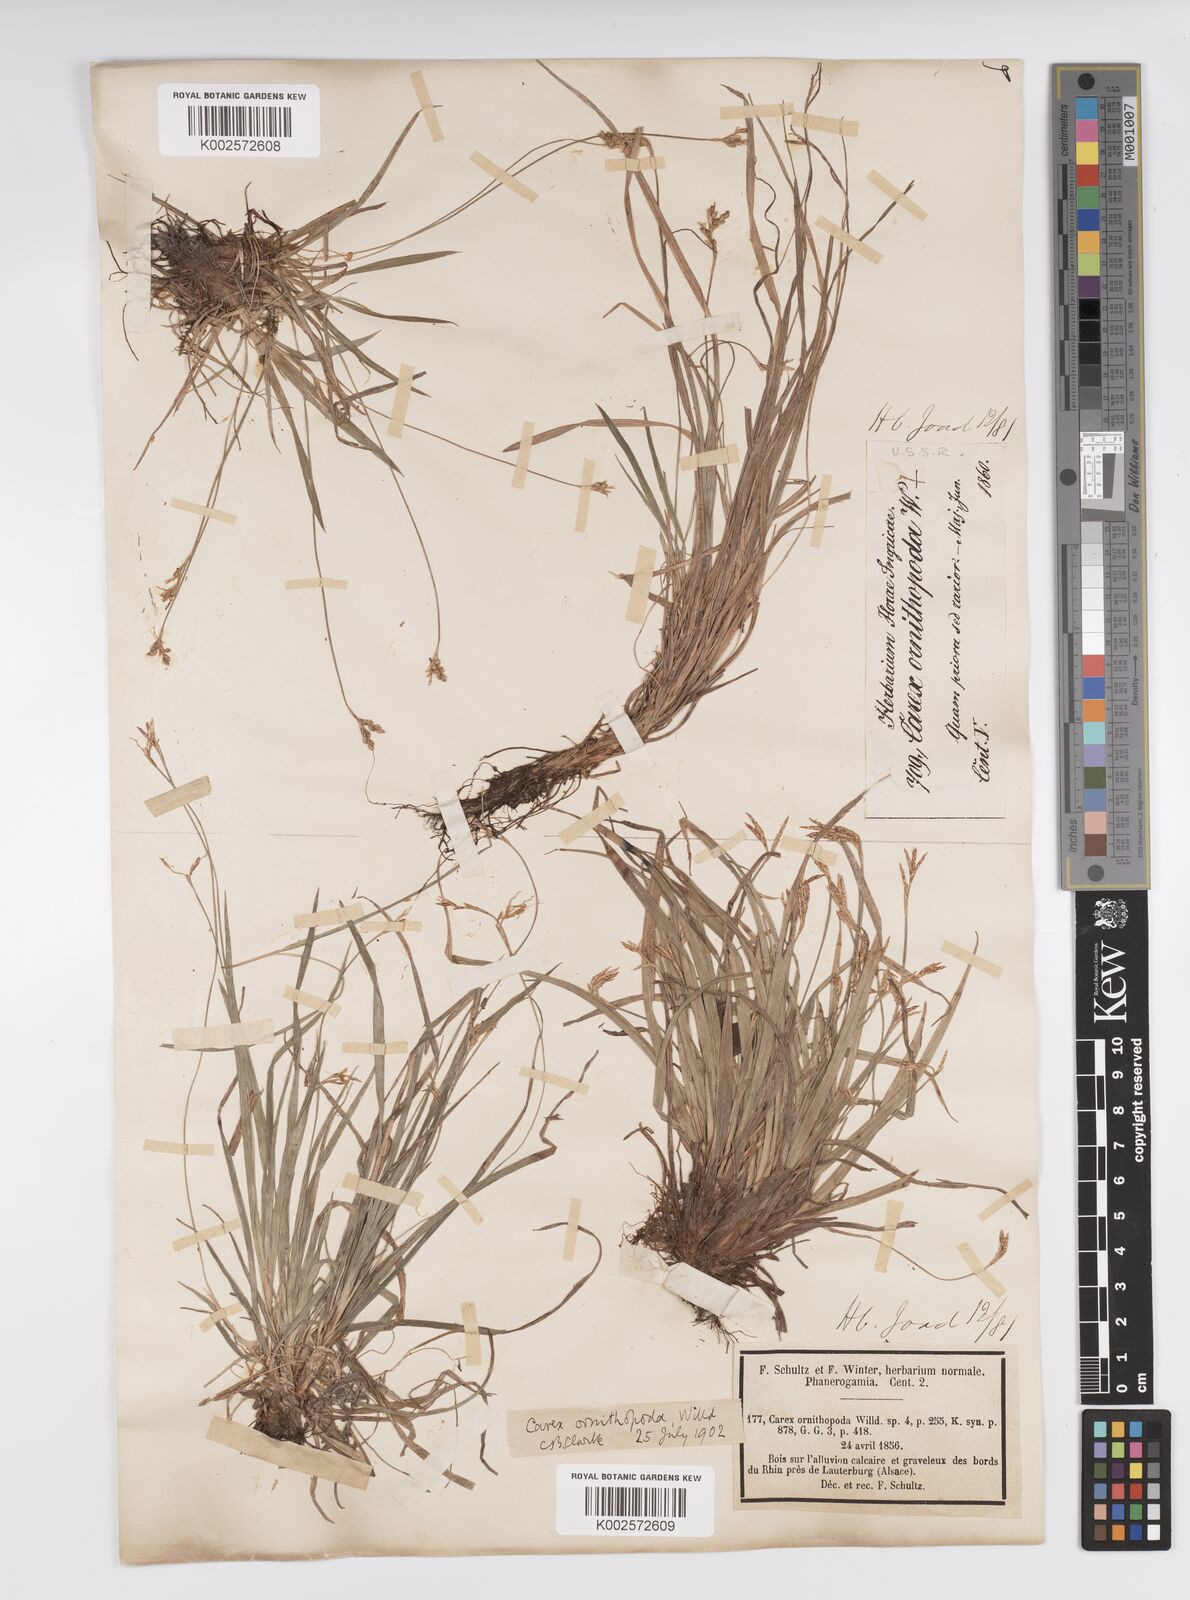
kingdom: Plantae
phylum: Tracheophyta
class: Liliopsida
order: Poales
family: Cyperaceae
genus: Carex
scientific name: Carex ornithopoda
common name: Bird's-foot sedge
